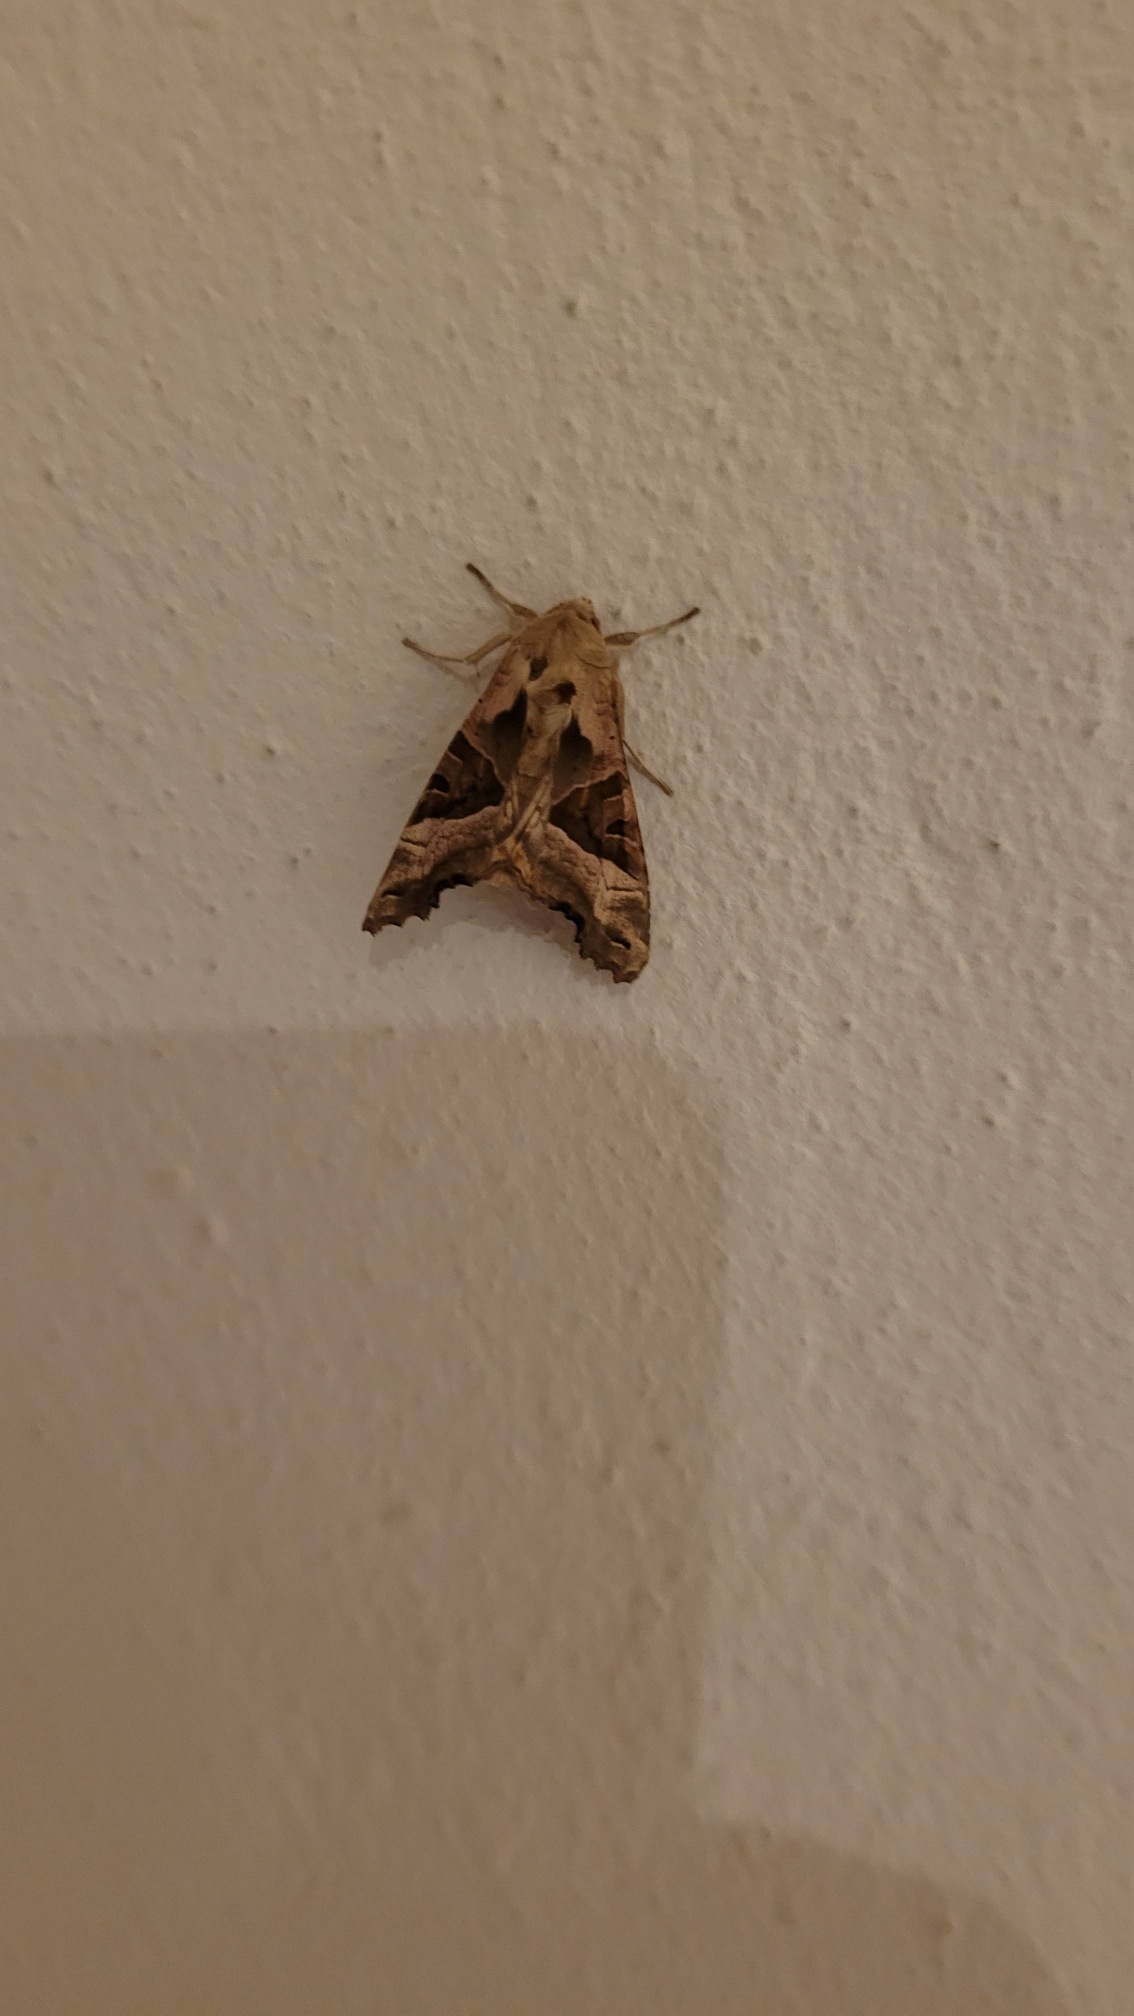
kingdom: Animalia
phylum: Arthropoda
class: Insecta
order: Lepidoptera
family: Noctuidae
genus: Phlogophora
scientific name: Phlogophora meticulosa
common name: Agatugle
